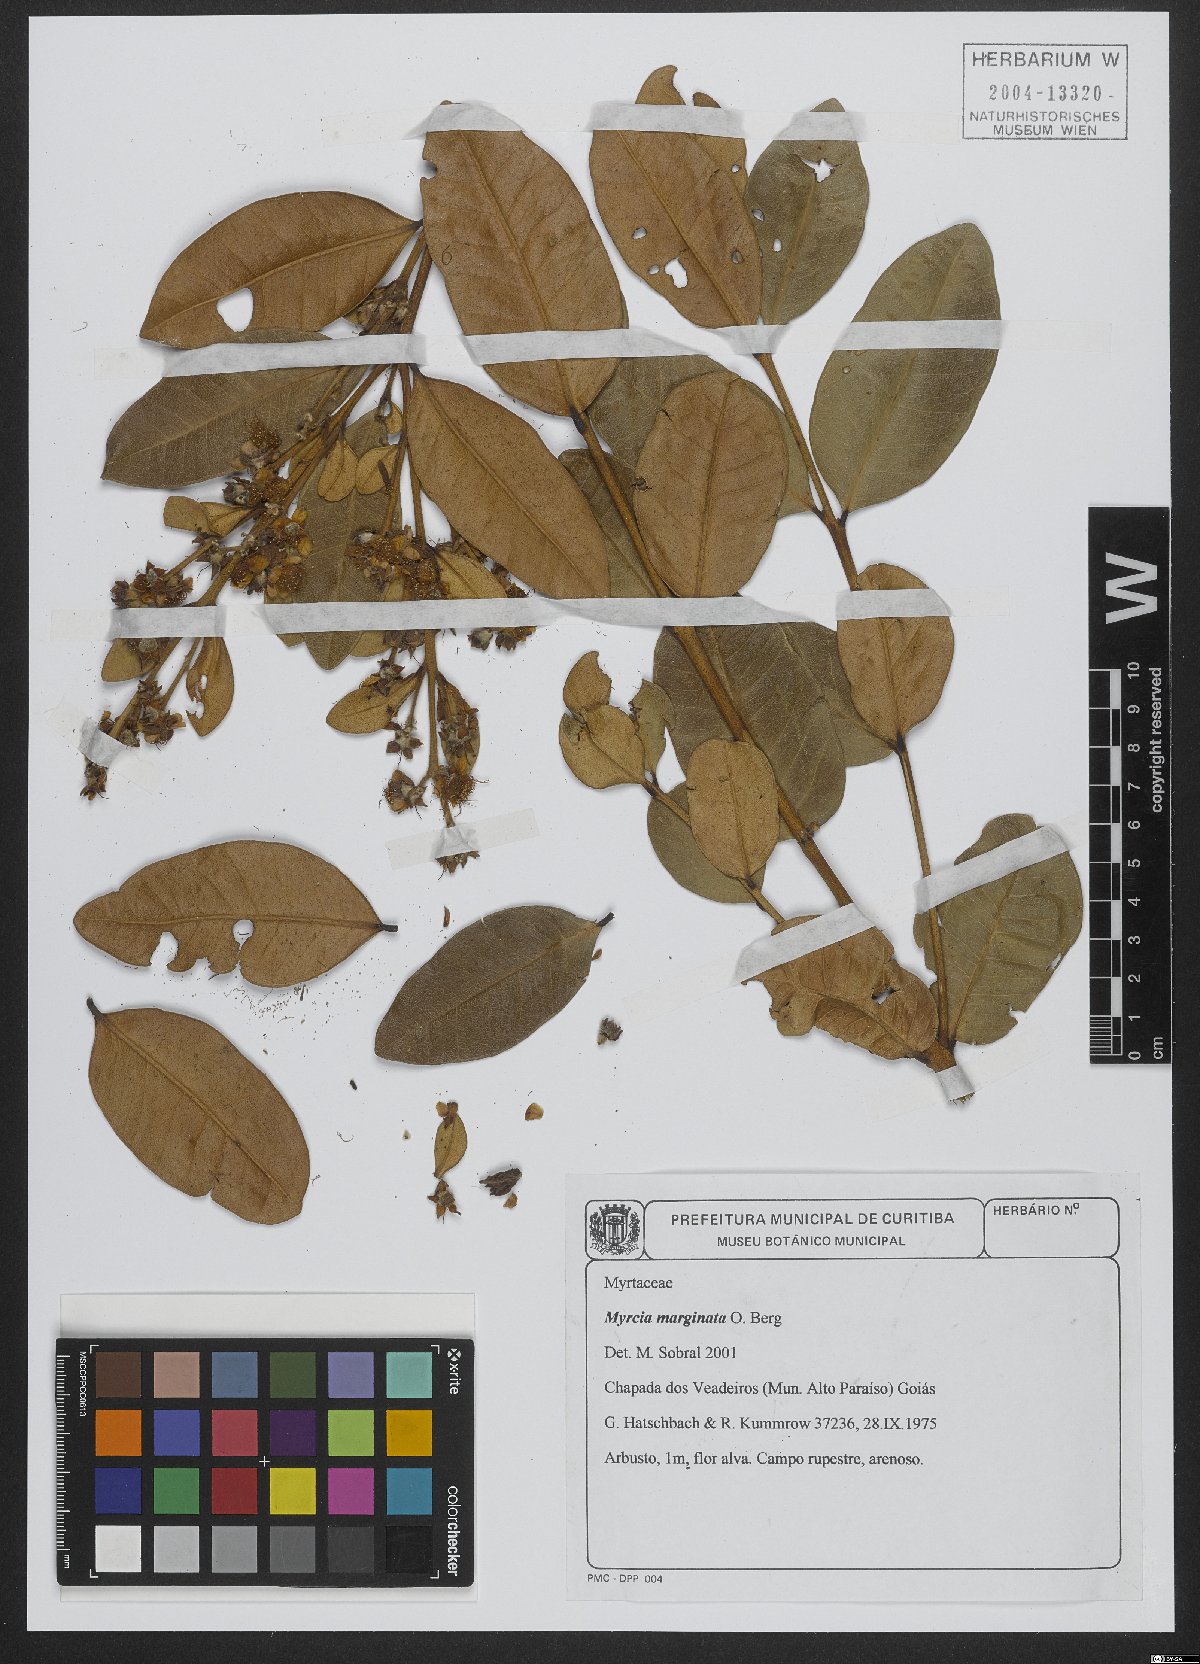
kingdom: Plantae
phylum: Tracheophyta
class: Magnoliopsida
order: Myrtales
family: Myrtaceae
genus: Myrcia
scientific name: Myrcia marginata
